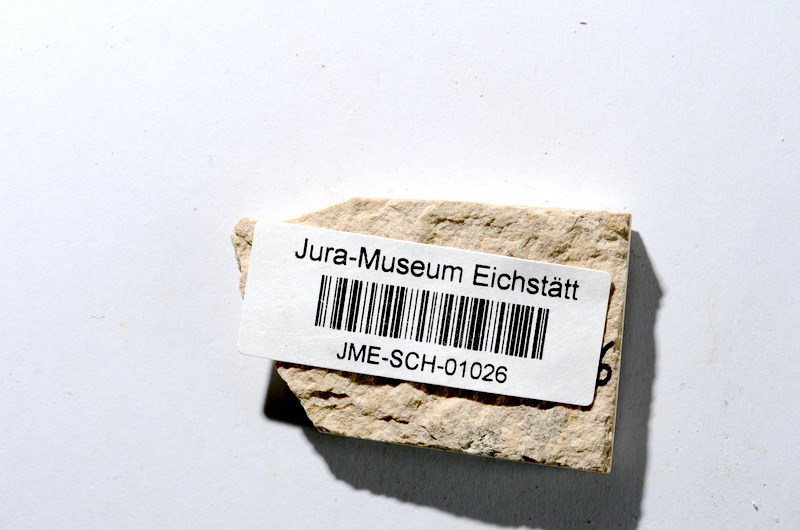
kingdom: Animalia
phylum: Chordata
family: Ascalaboidae
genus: Tharsis
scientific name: Tharsis dubius
